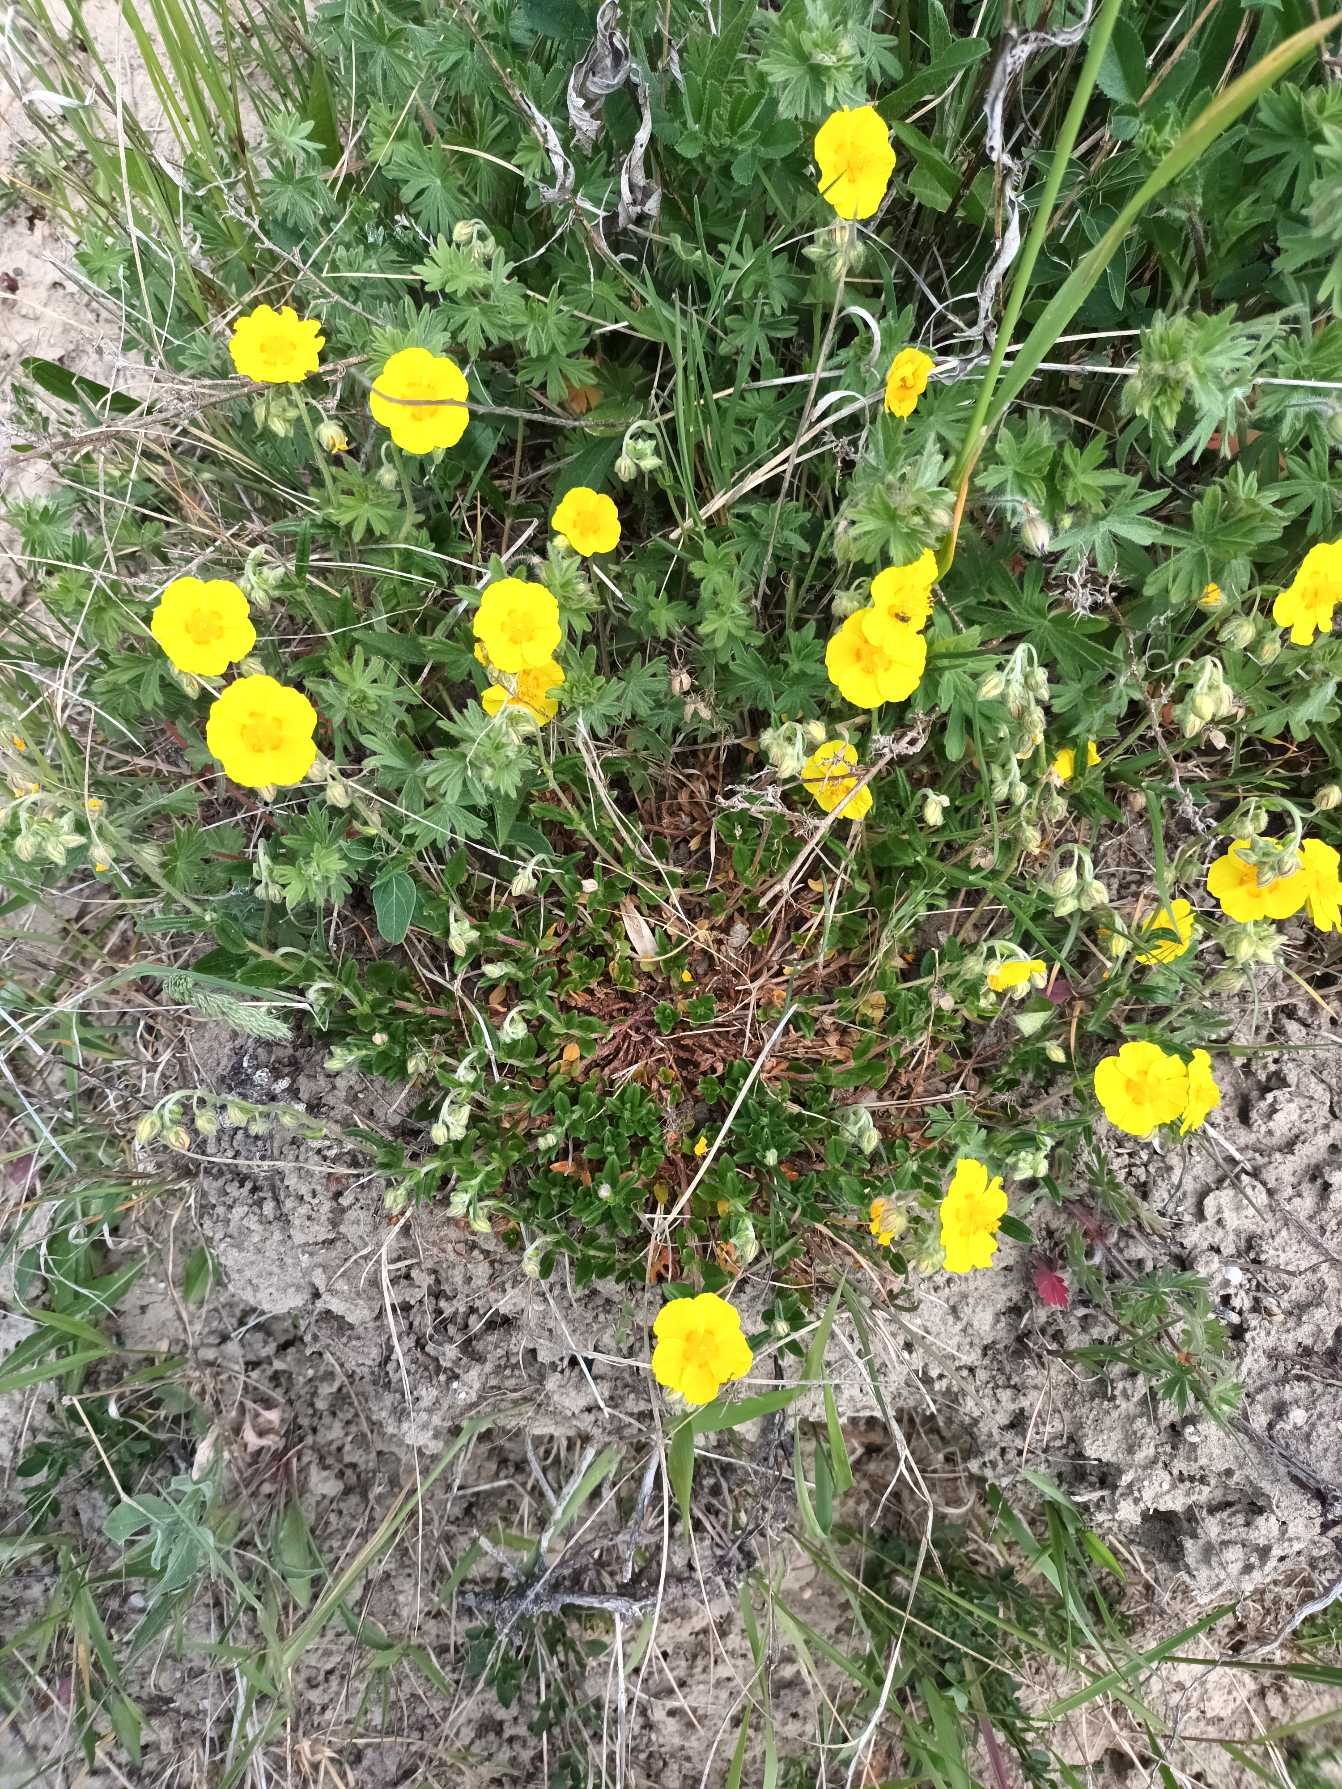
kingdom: Plantae
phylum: Tracheophyta
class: Magnoliopsida
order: Malvales
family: Cistaceae
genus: Helianthemum
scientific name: Helianthemum nummularium
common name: Soløje
